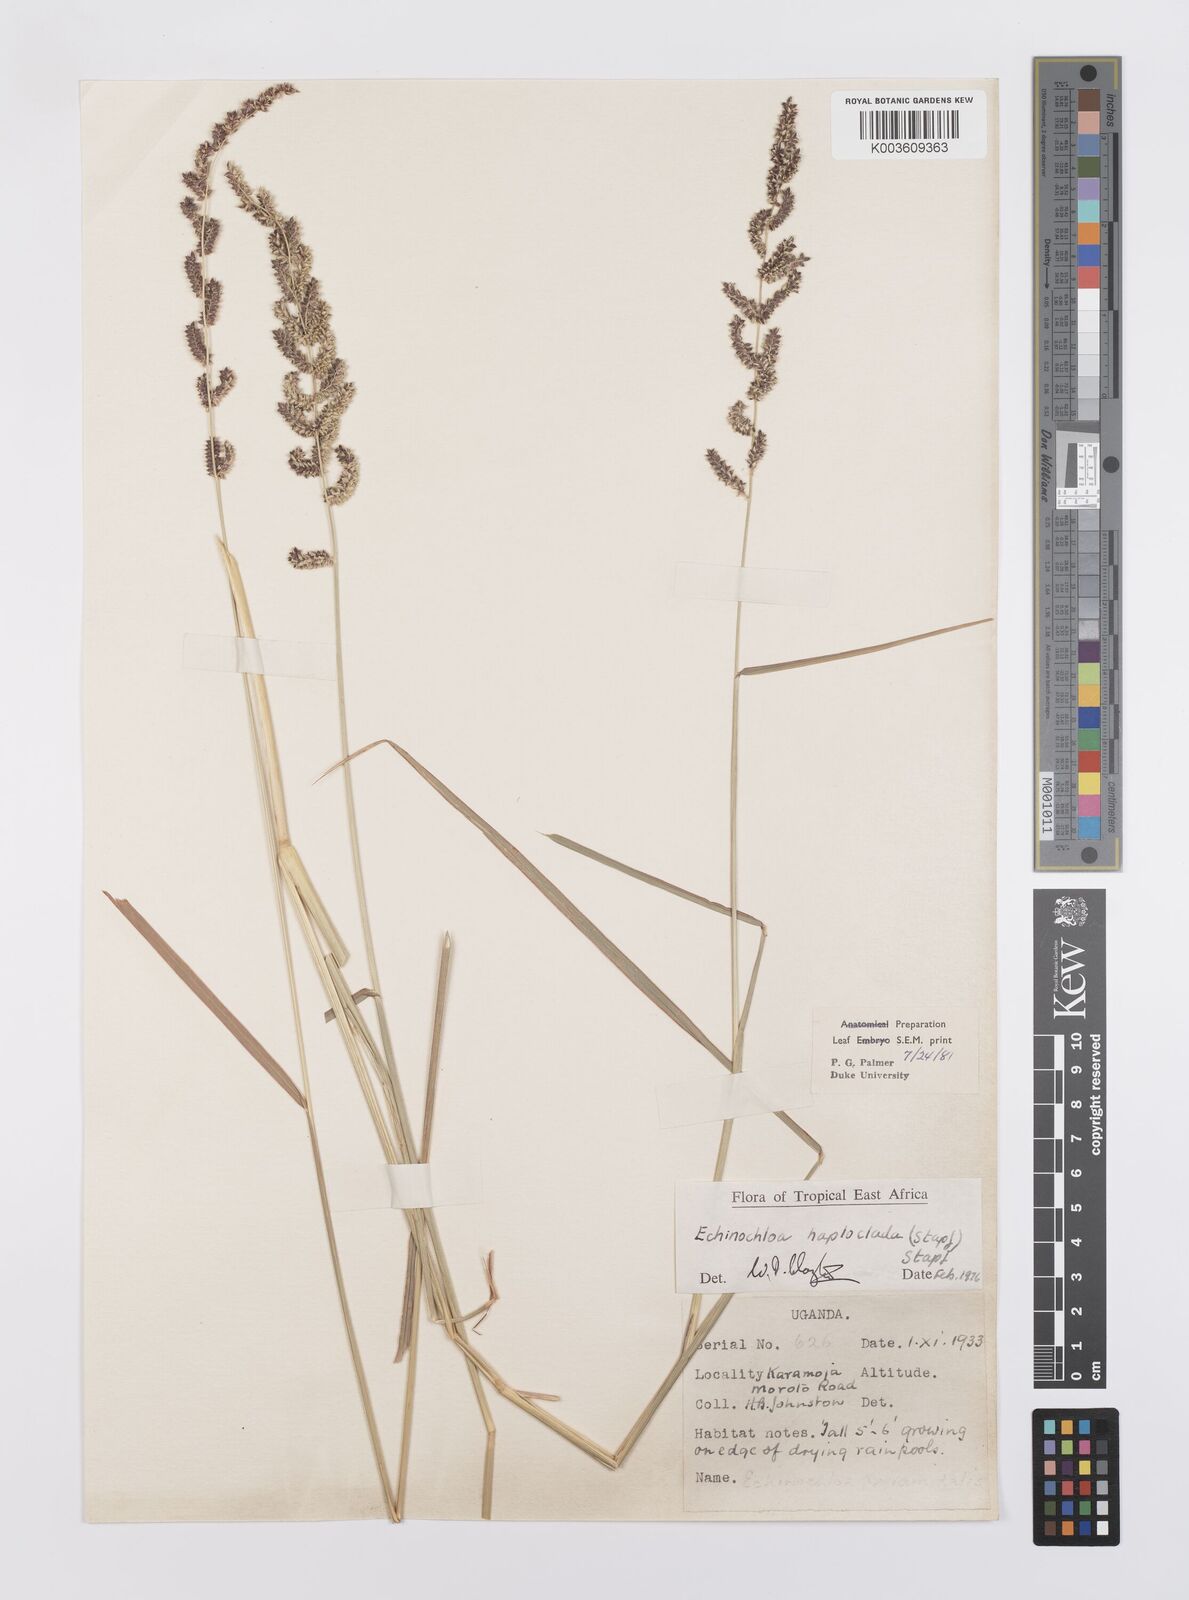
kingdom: Plantae
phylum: Tracheophyta
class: Liliopsida
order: Poales
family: Poaceae
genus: Echinochloa
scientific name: Echinochloa haploclada
